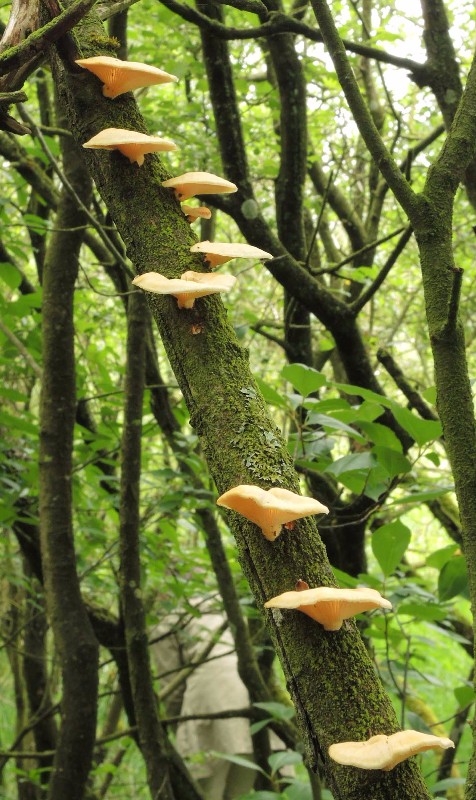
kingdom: Fungi
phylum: Basidiomycota
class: Agaricomycetes
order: Polyporales
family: Polyporaceae
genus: Neofavolus
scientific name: Neofavolus suavissimus
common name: anishat
